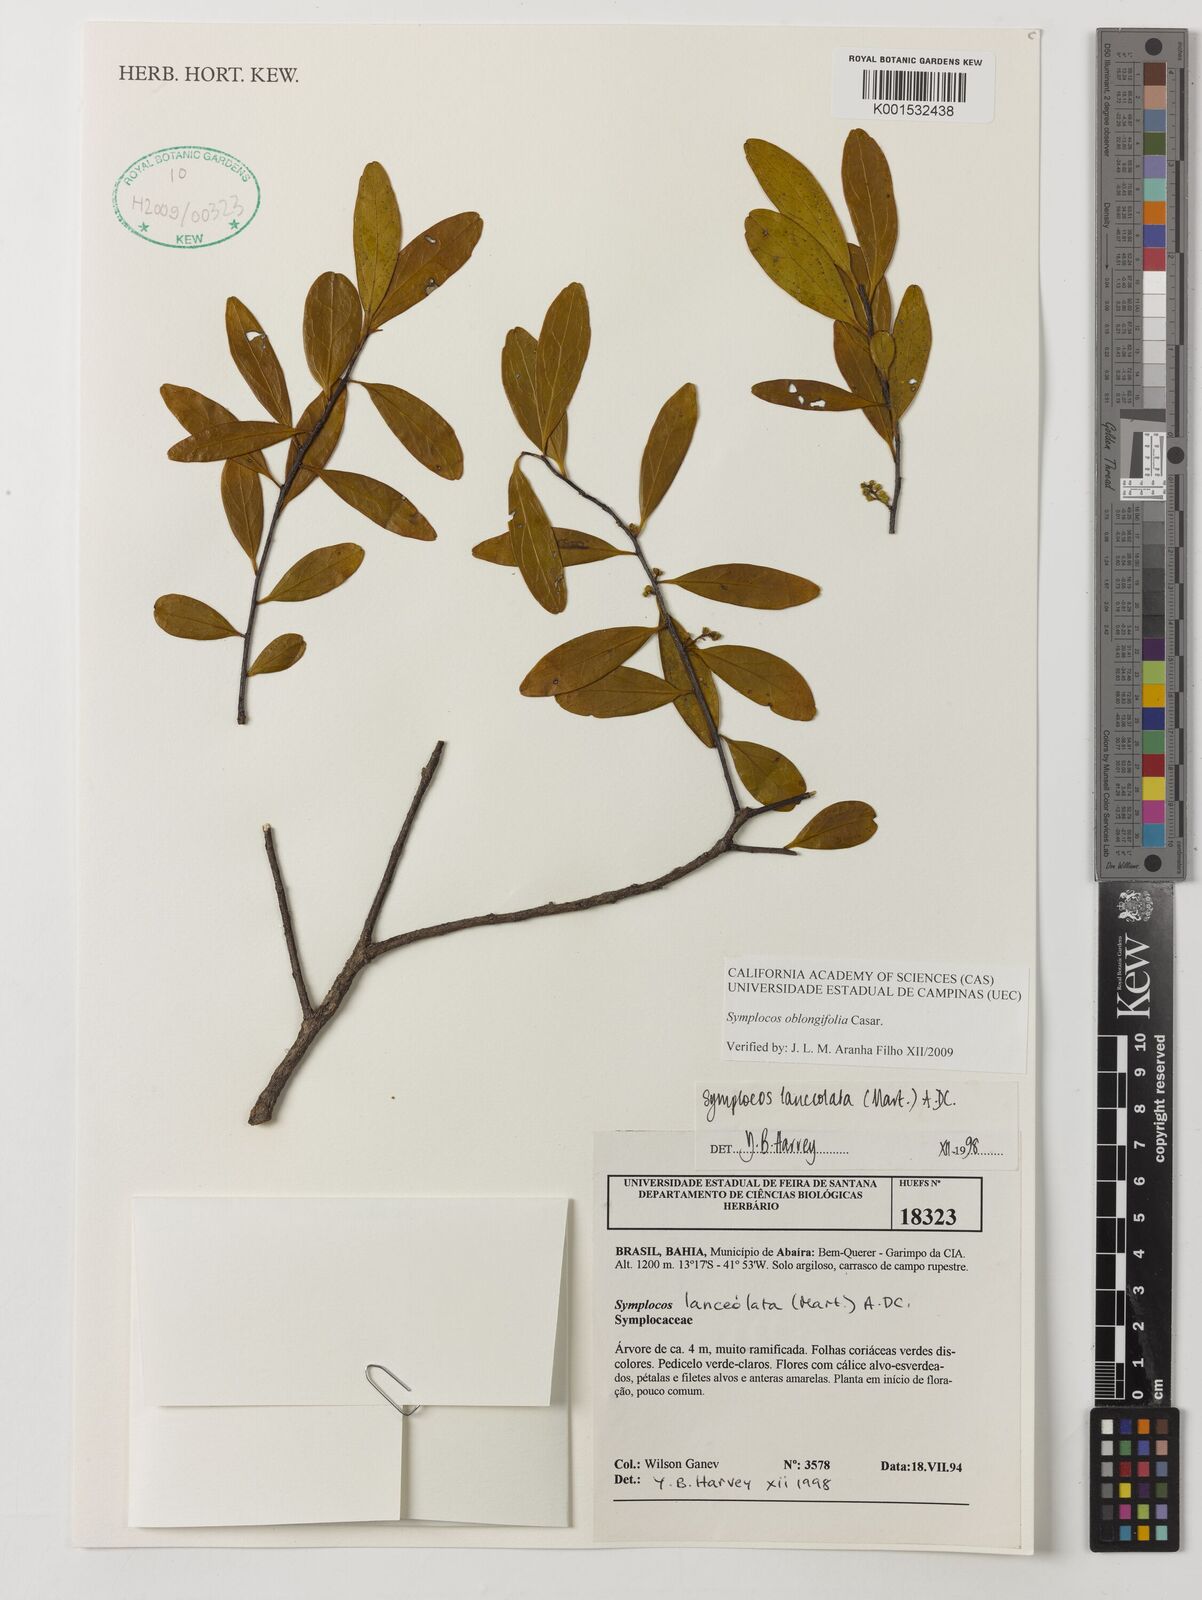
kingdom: Plantae
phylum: Tracheophyta
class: Magnoliopsida
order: Ericales
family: Symplocaceae
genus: Symplocos
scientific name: Symplocos oblongifolia
